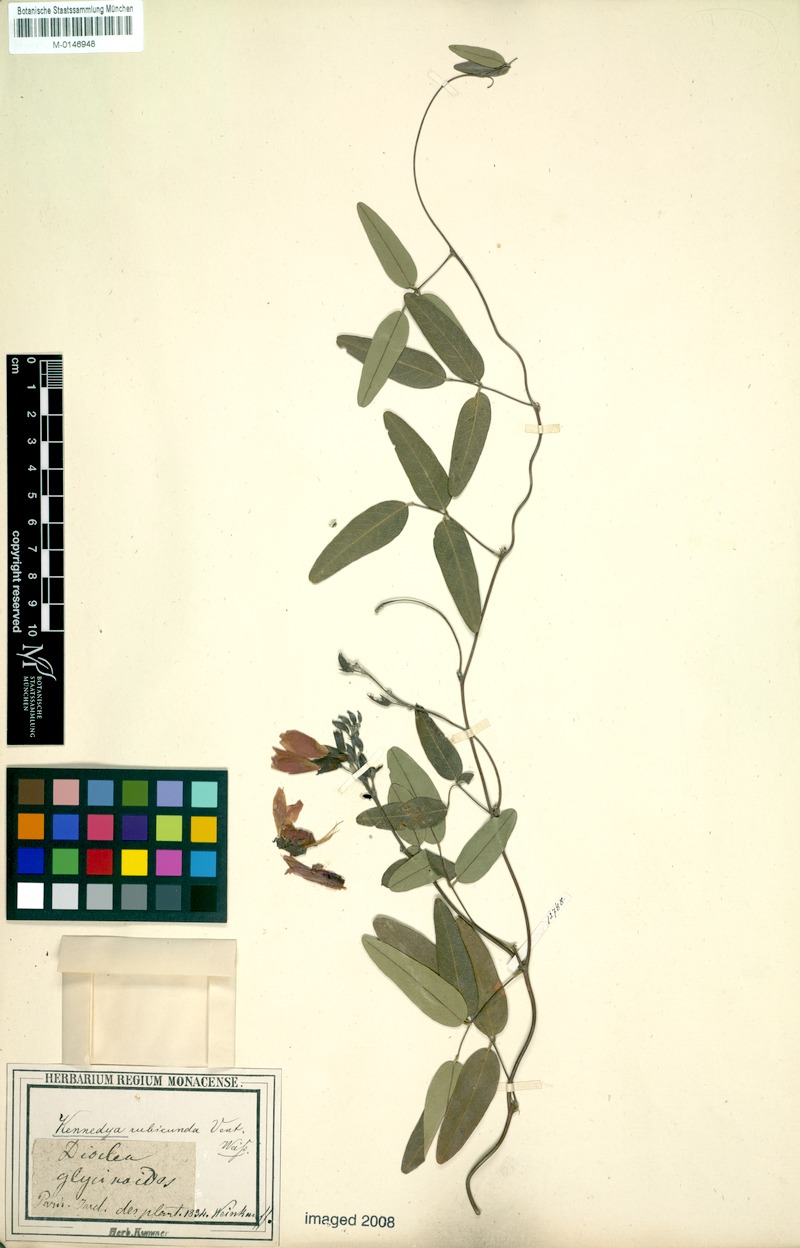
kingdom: Plantae
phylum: Tracheophyta
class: Magnoliopsida
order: Fabales
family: Fabaceae
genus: Kennedia
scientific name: Kennedia rubicunda
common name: Red kennedy-pea
